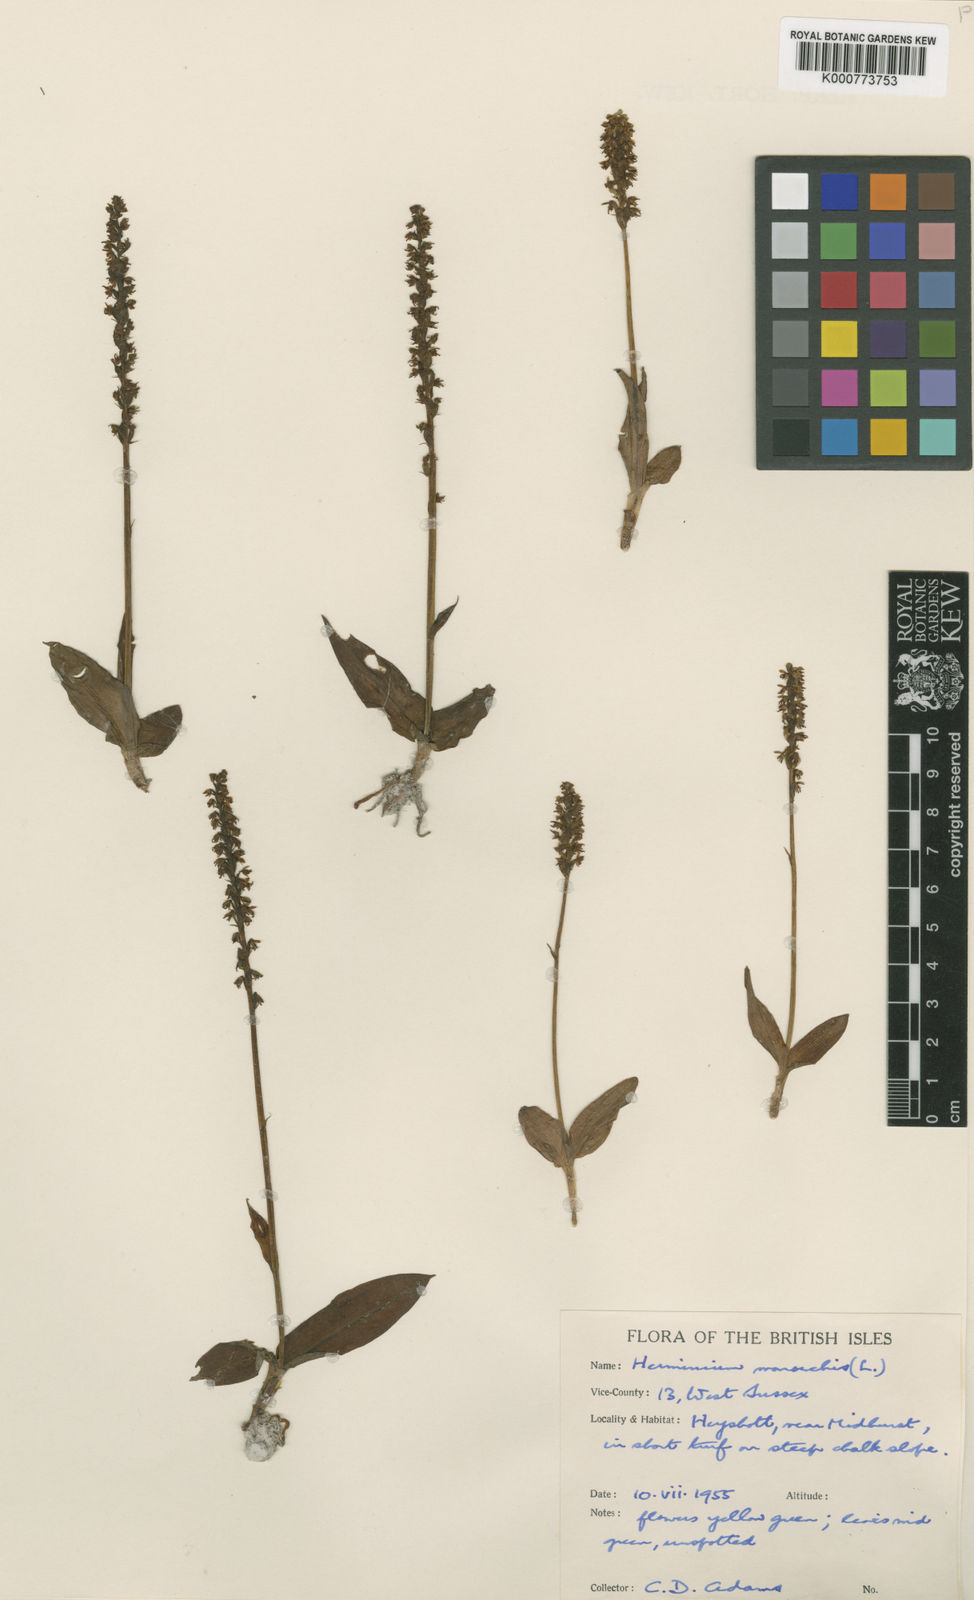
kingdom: Plantae
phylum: Tracheophyta
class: Liliopsida
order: Asparagales
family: Orchidaceae
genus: Herminium
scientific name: Herminium monorchis
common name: Musk orchid
